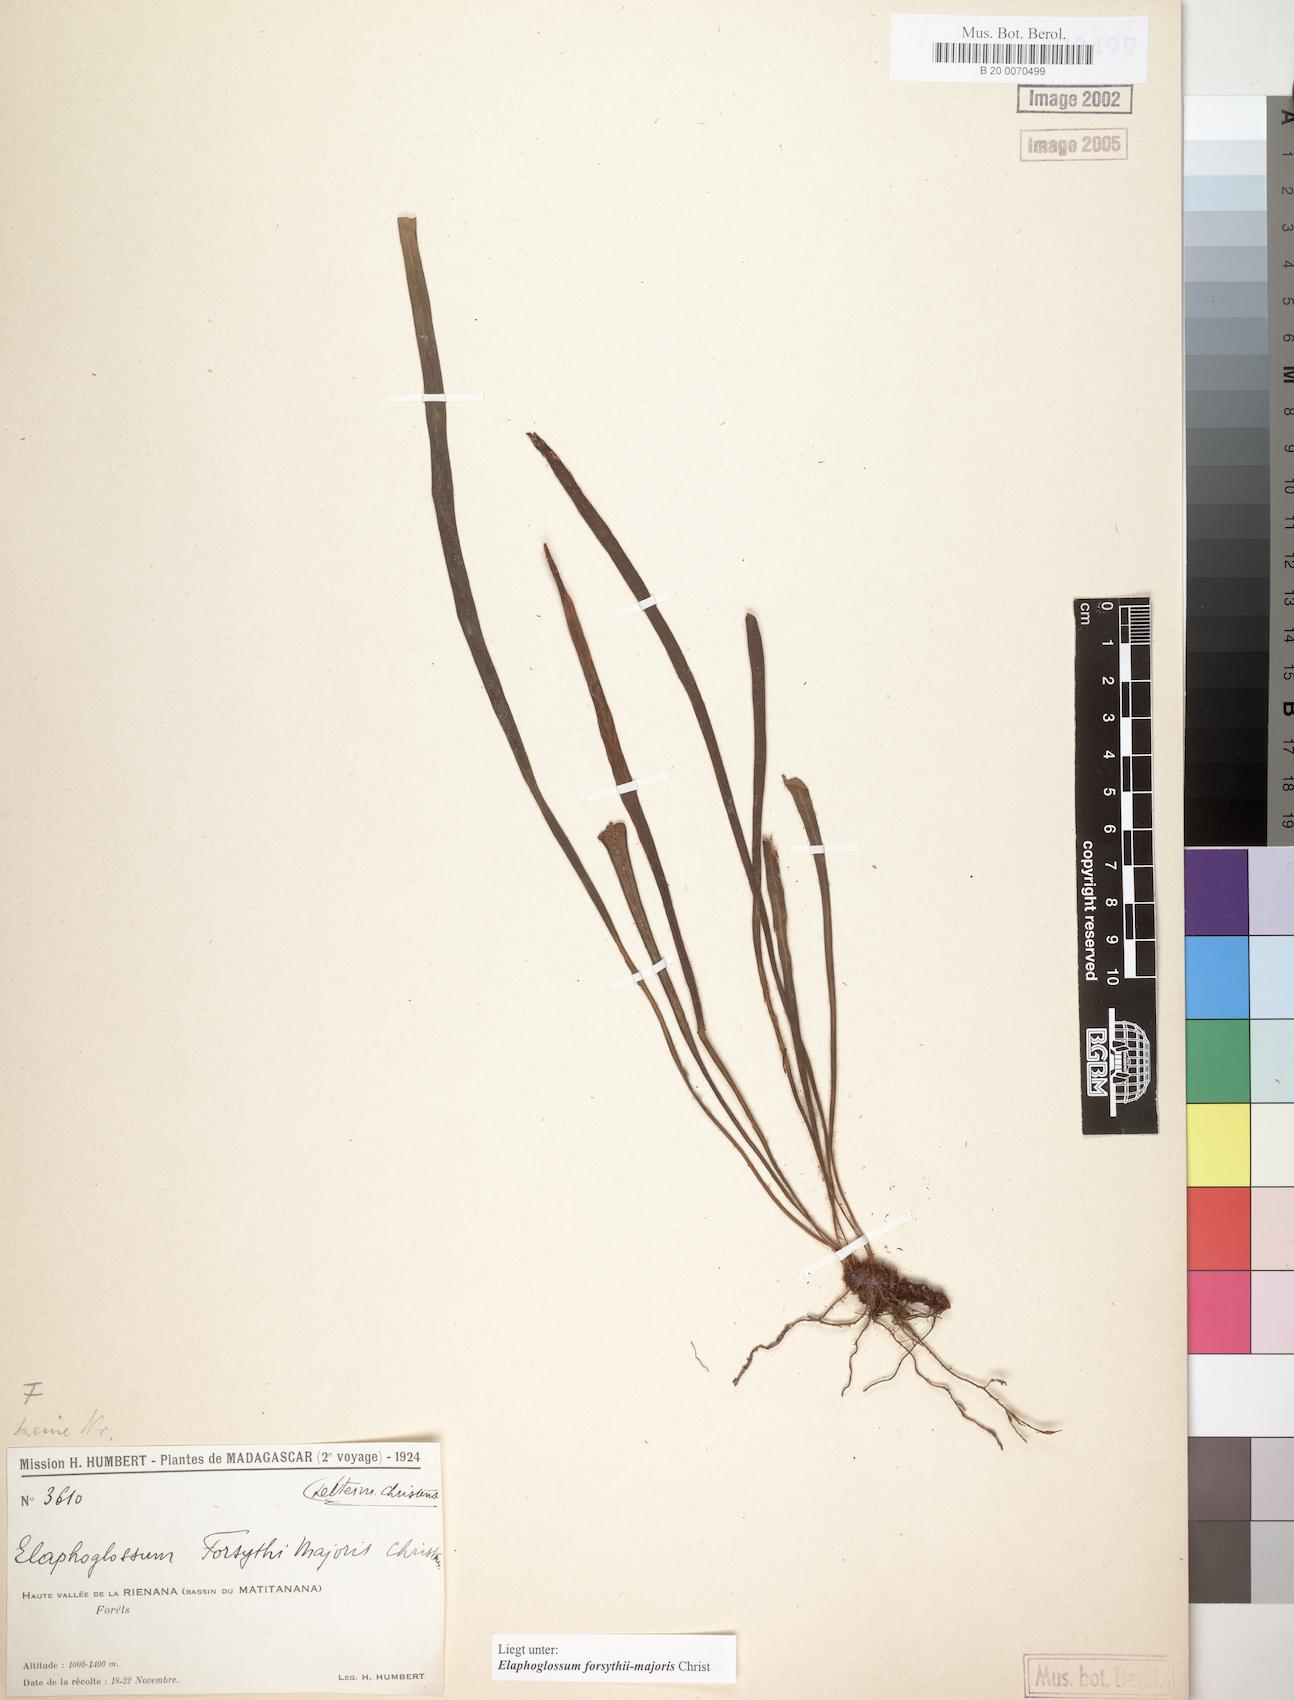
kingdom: Plantae
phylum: Tracheophyta
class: Polypodiopsida
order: Polypodiales
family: Dryopteridaceae
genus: Elaphoglossum
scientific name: Elaphoglossum forsythii-majoris
